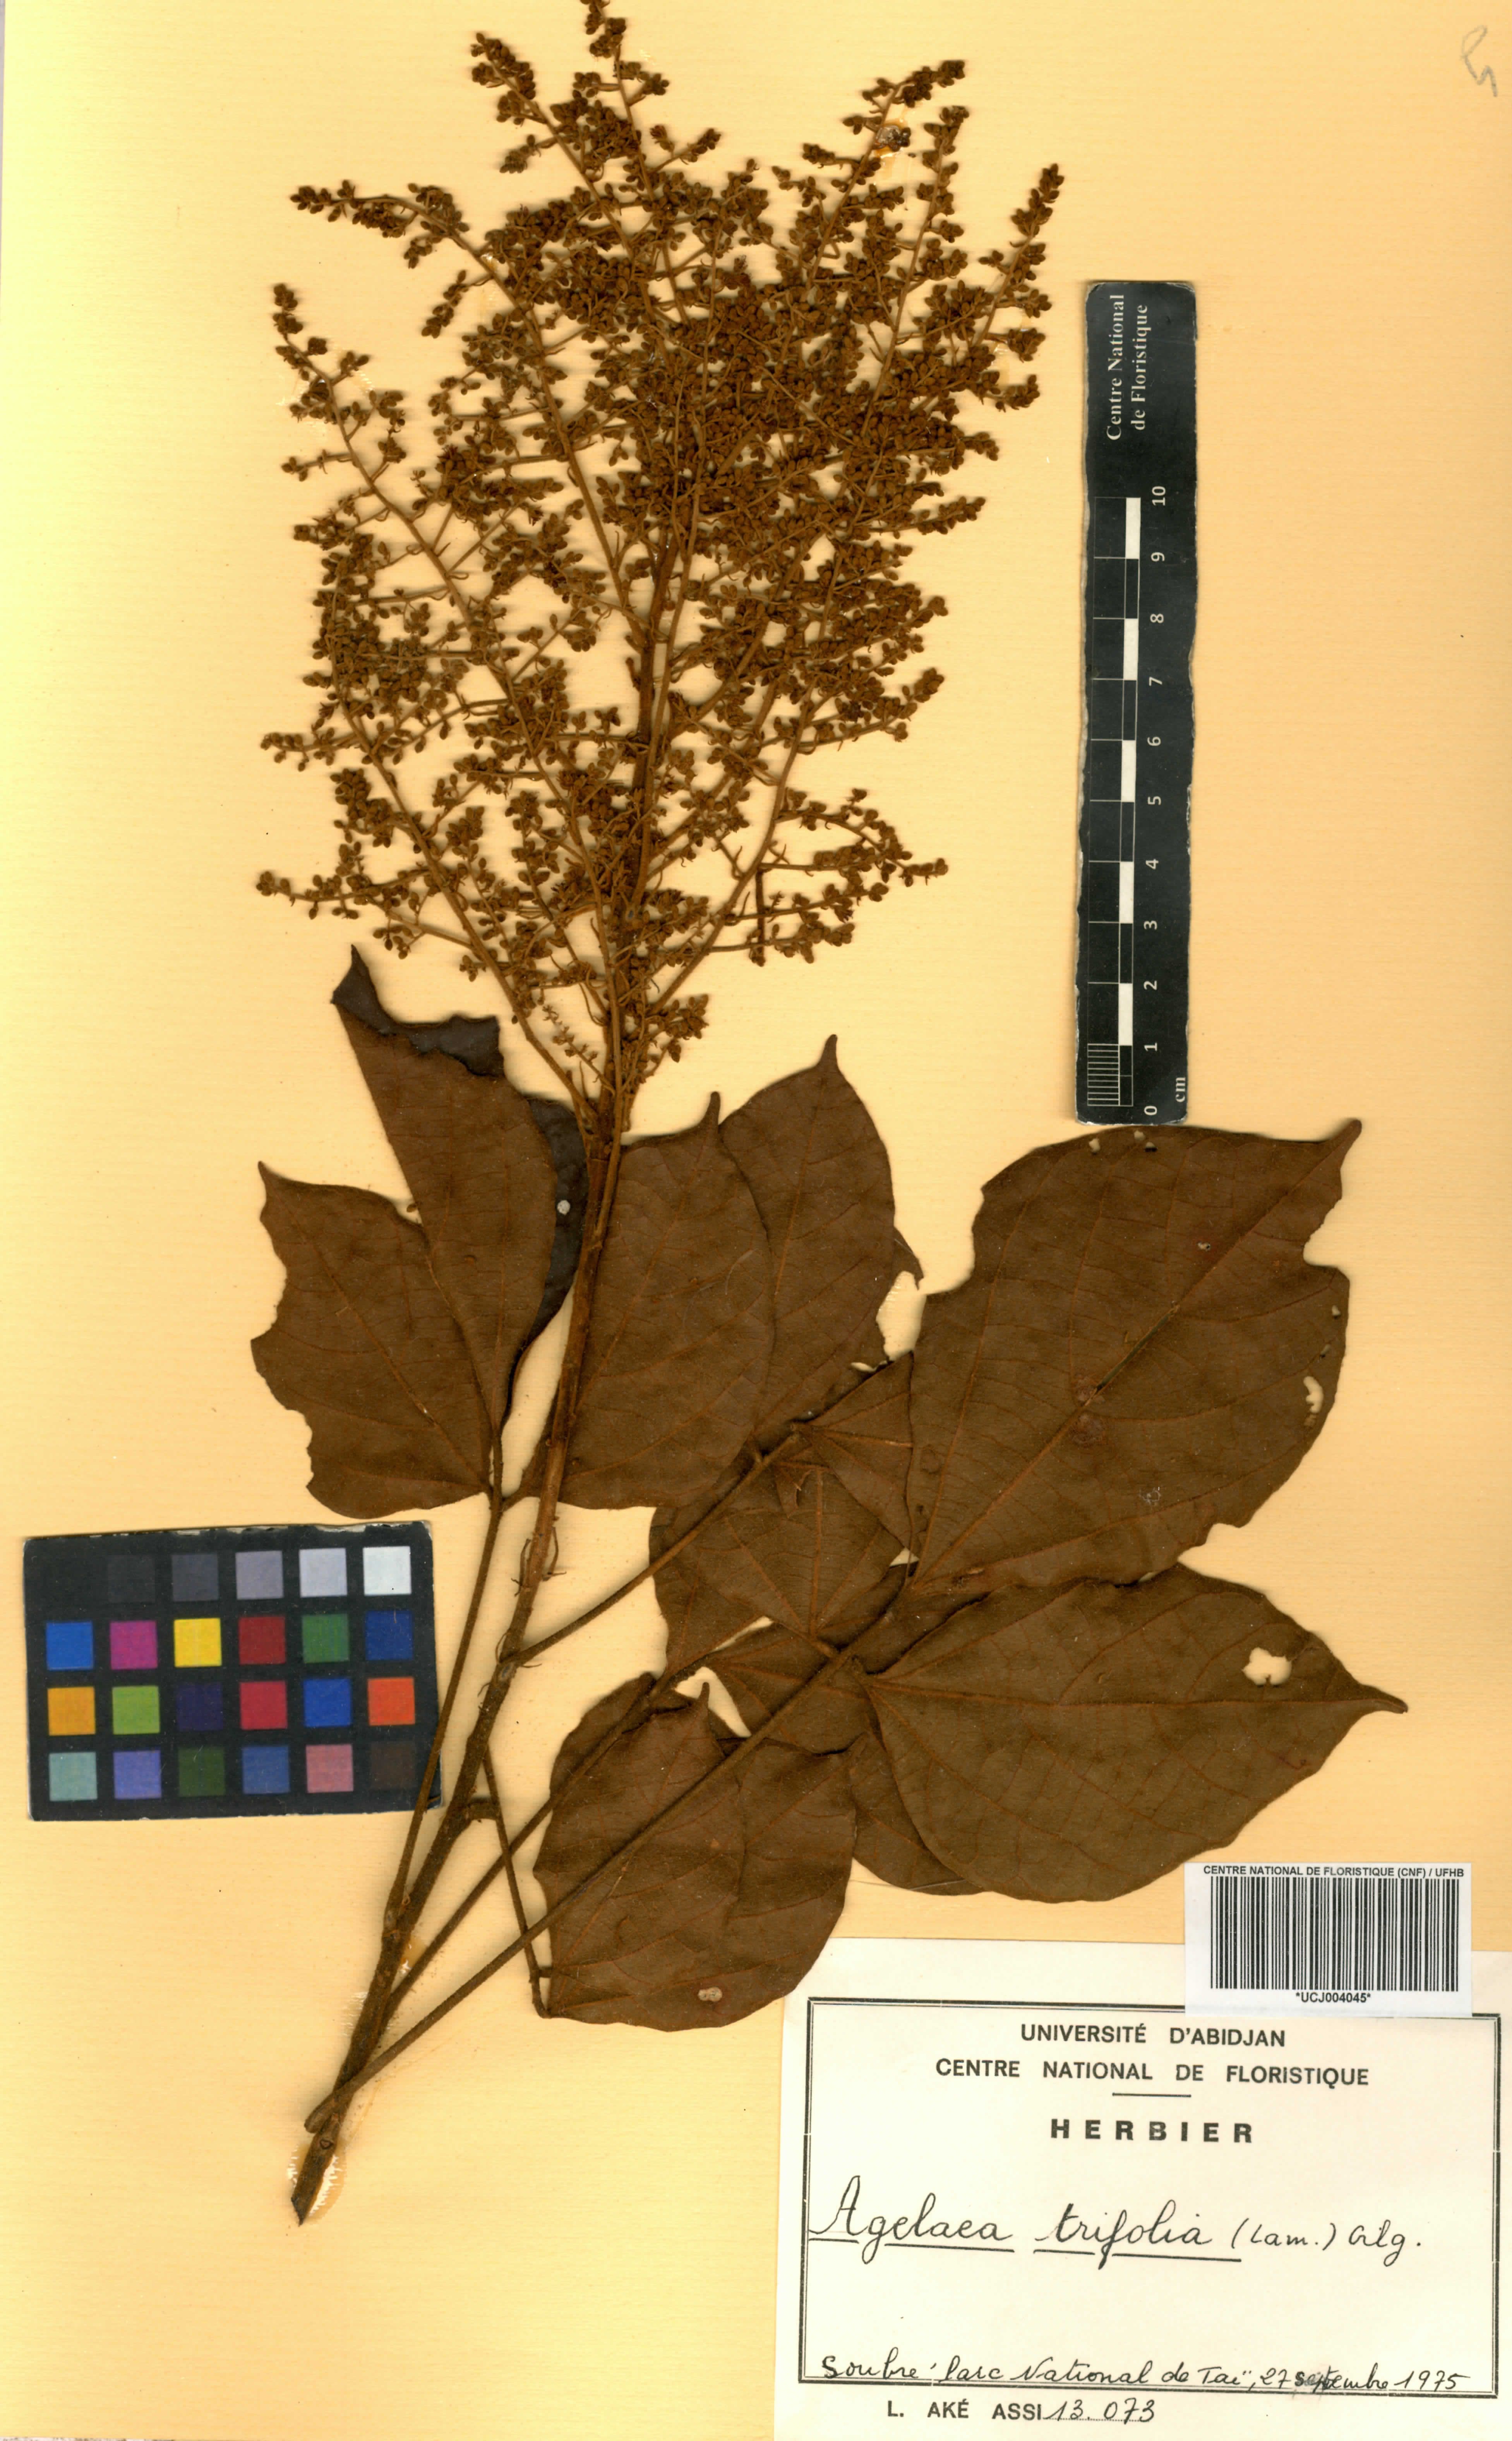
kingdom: Plantae
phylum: Tracheophyta
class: Magnoliopsida
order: Oxalidales
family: Connaraceae
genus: Agelaea
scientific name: Agelaea pentagyna
